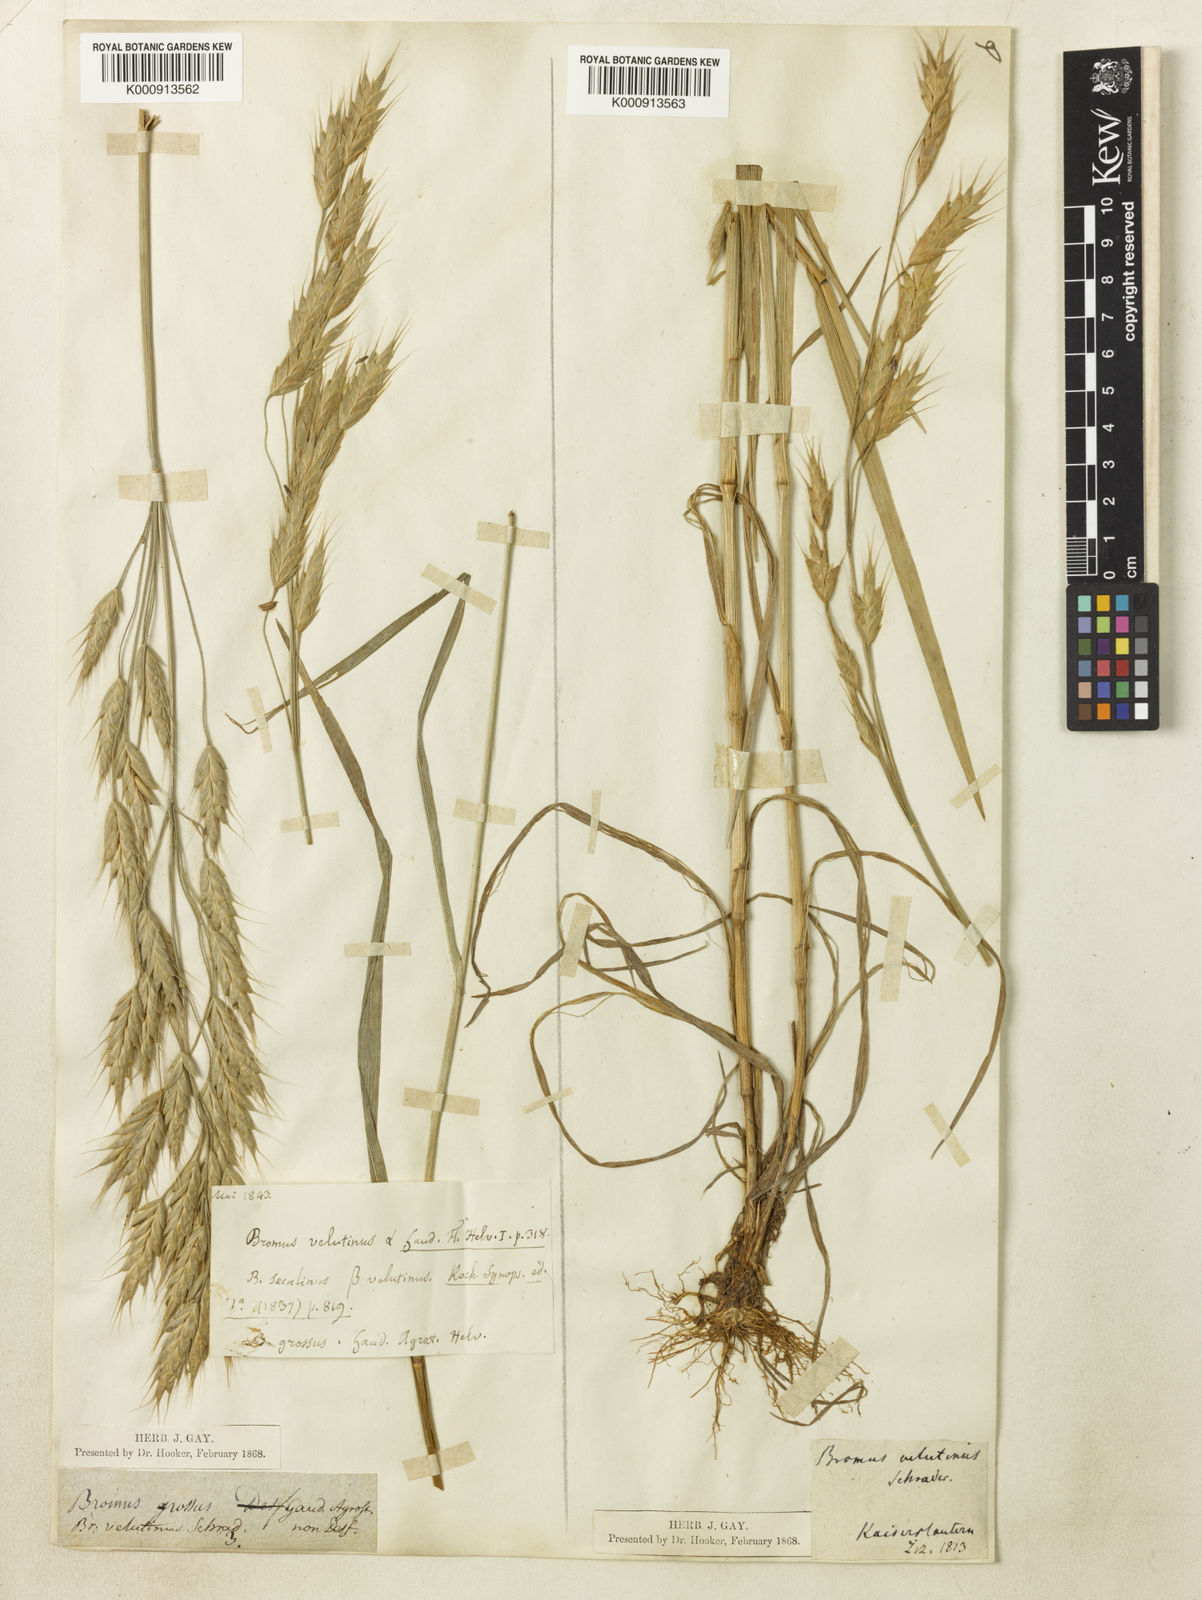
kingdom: Plantae
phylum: Tracheophyta
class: Liliopsida
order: Poales
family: Poaceae
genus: Bromus
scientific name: Bromus grossus
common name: Whiskered brome
